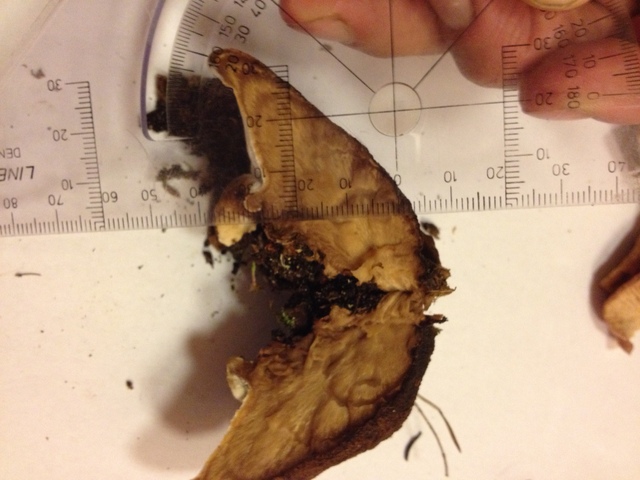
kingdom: Fungi
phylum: Basidiomycota
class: Agaricomycetes
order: Polyporales
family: Ischnodermataceae
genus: Ischnoderma
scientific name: Ischnoderma benzoinum
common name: gran-tjæreporesvamp
